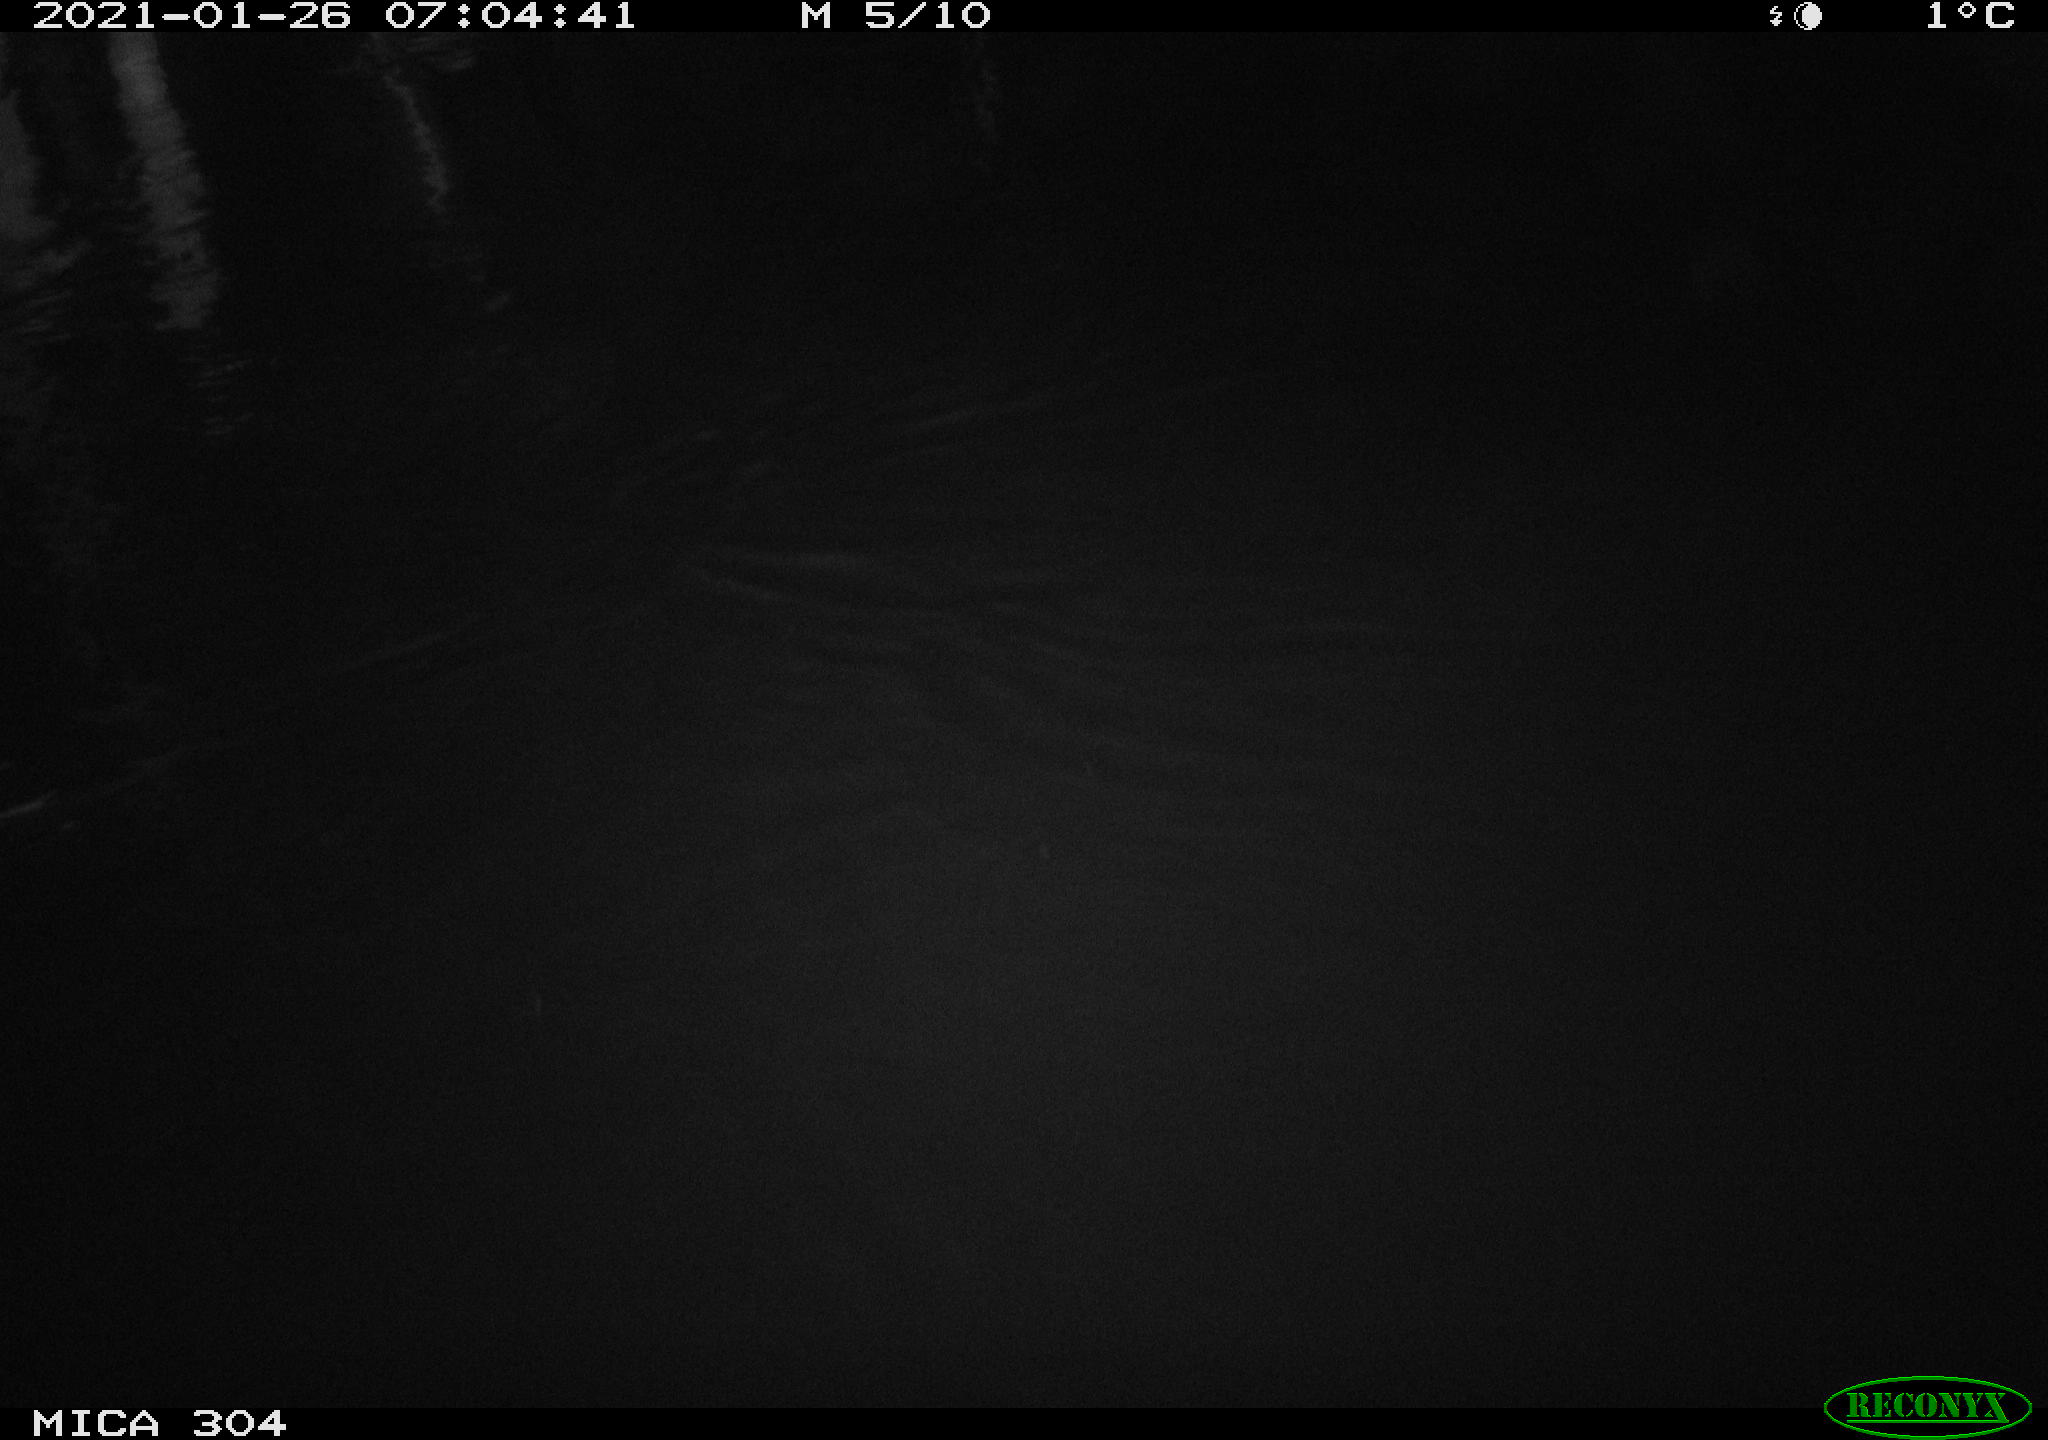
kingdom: Animalia
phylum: Chordata
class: Mammalia
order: Rodentia
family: Muridae
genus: Rattus
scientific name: Rattus norvegicus
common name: Brown rat
